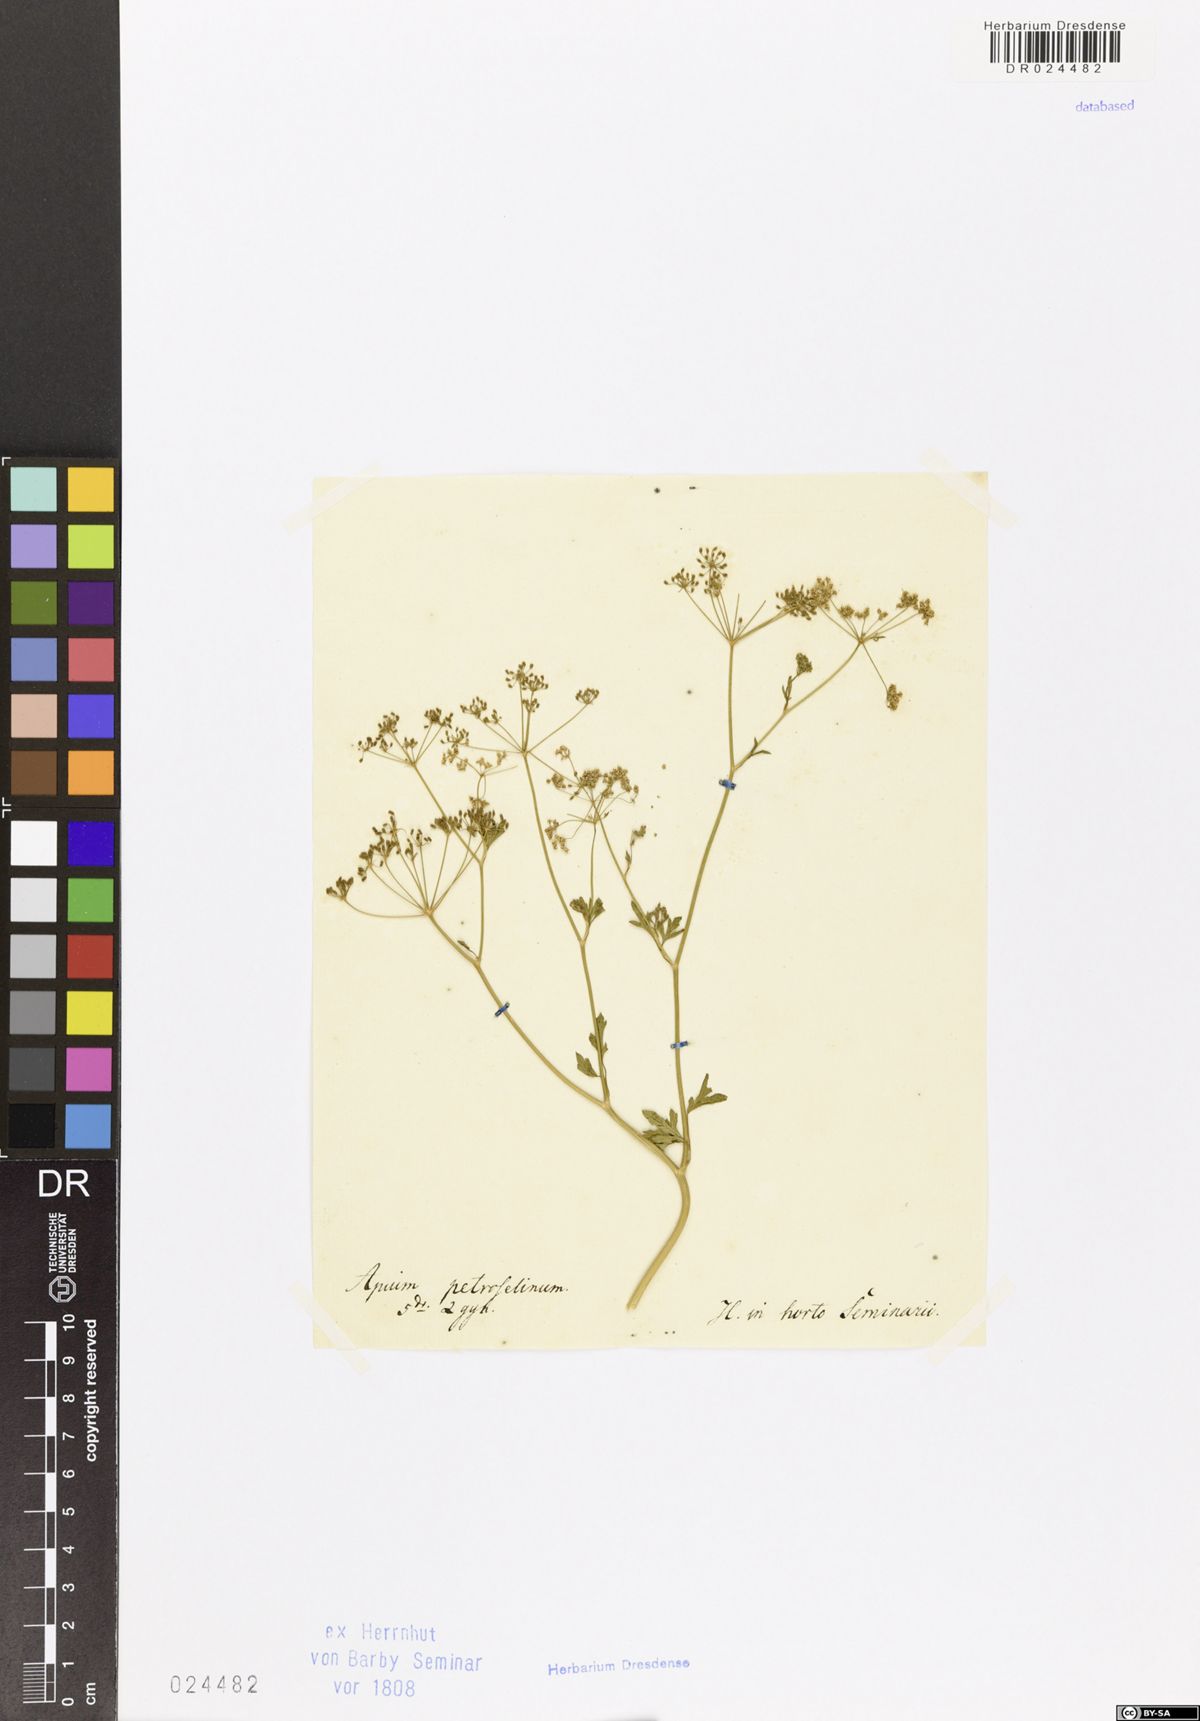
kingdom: Plantae
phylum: Tracheophyta
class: Magnoliopsida
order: Apiales
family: Apiaceae
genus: Petroselinum
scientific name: Petroselinum
